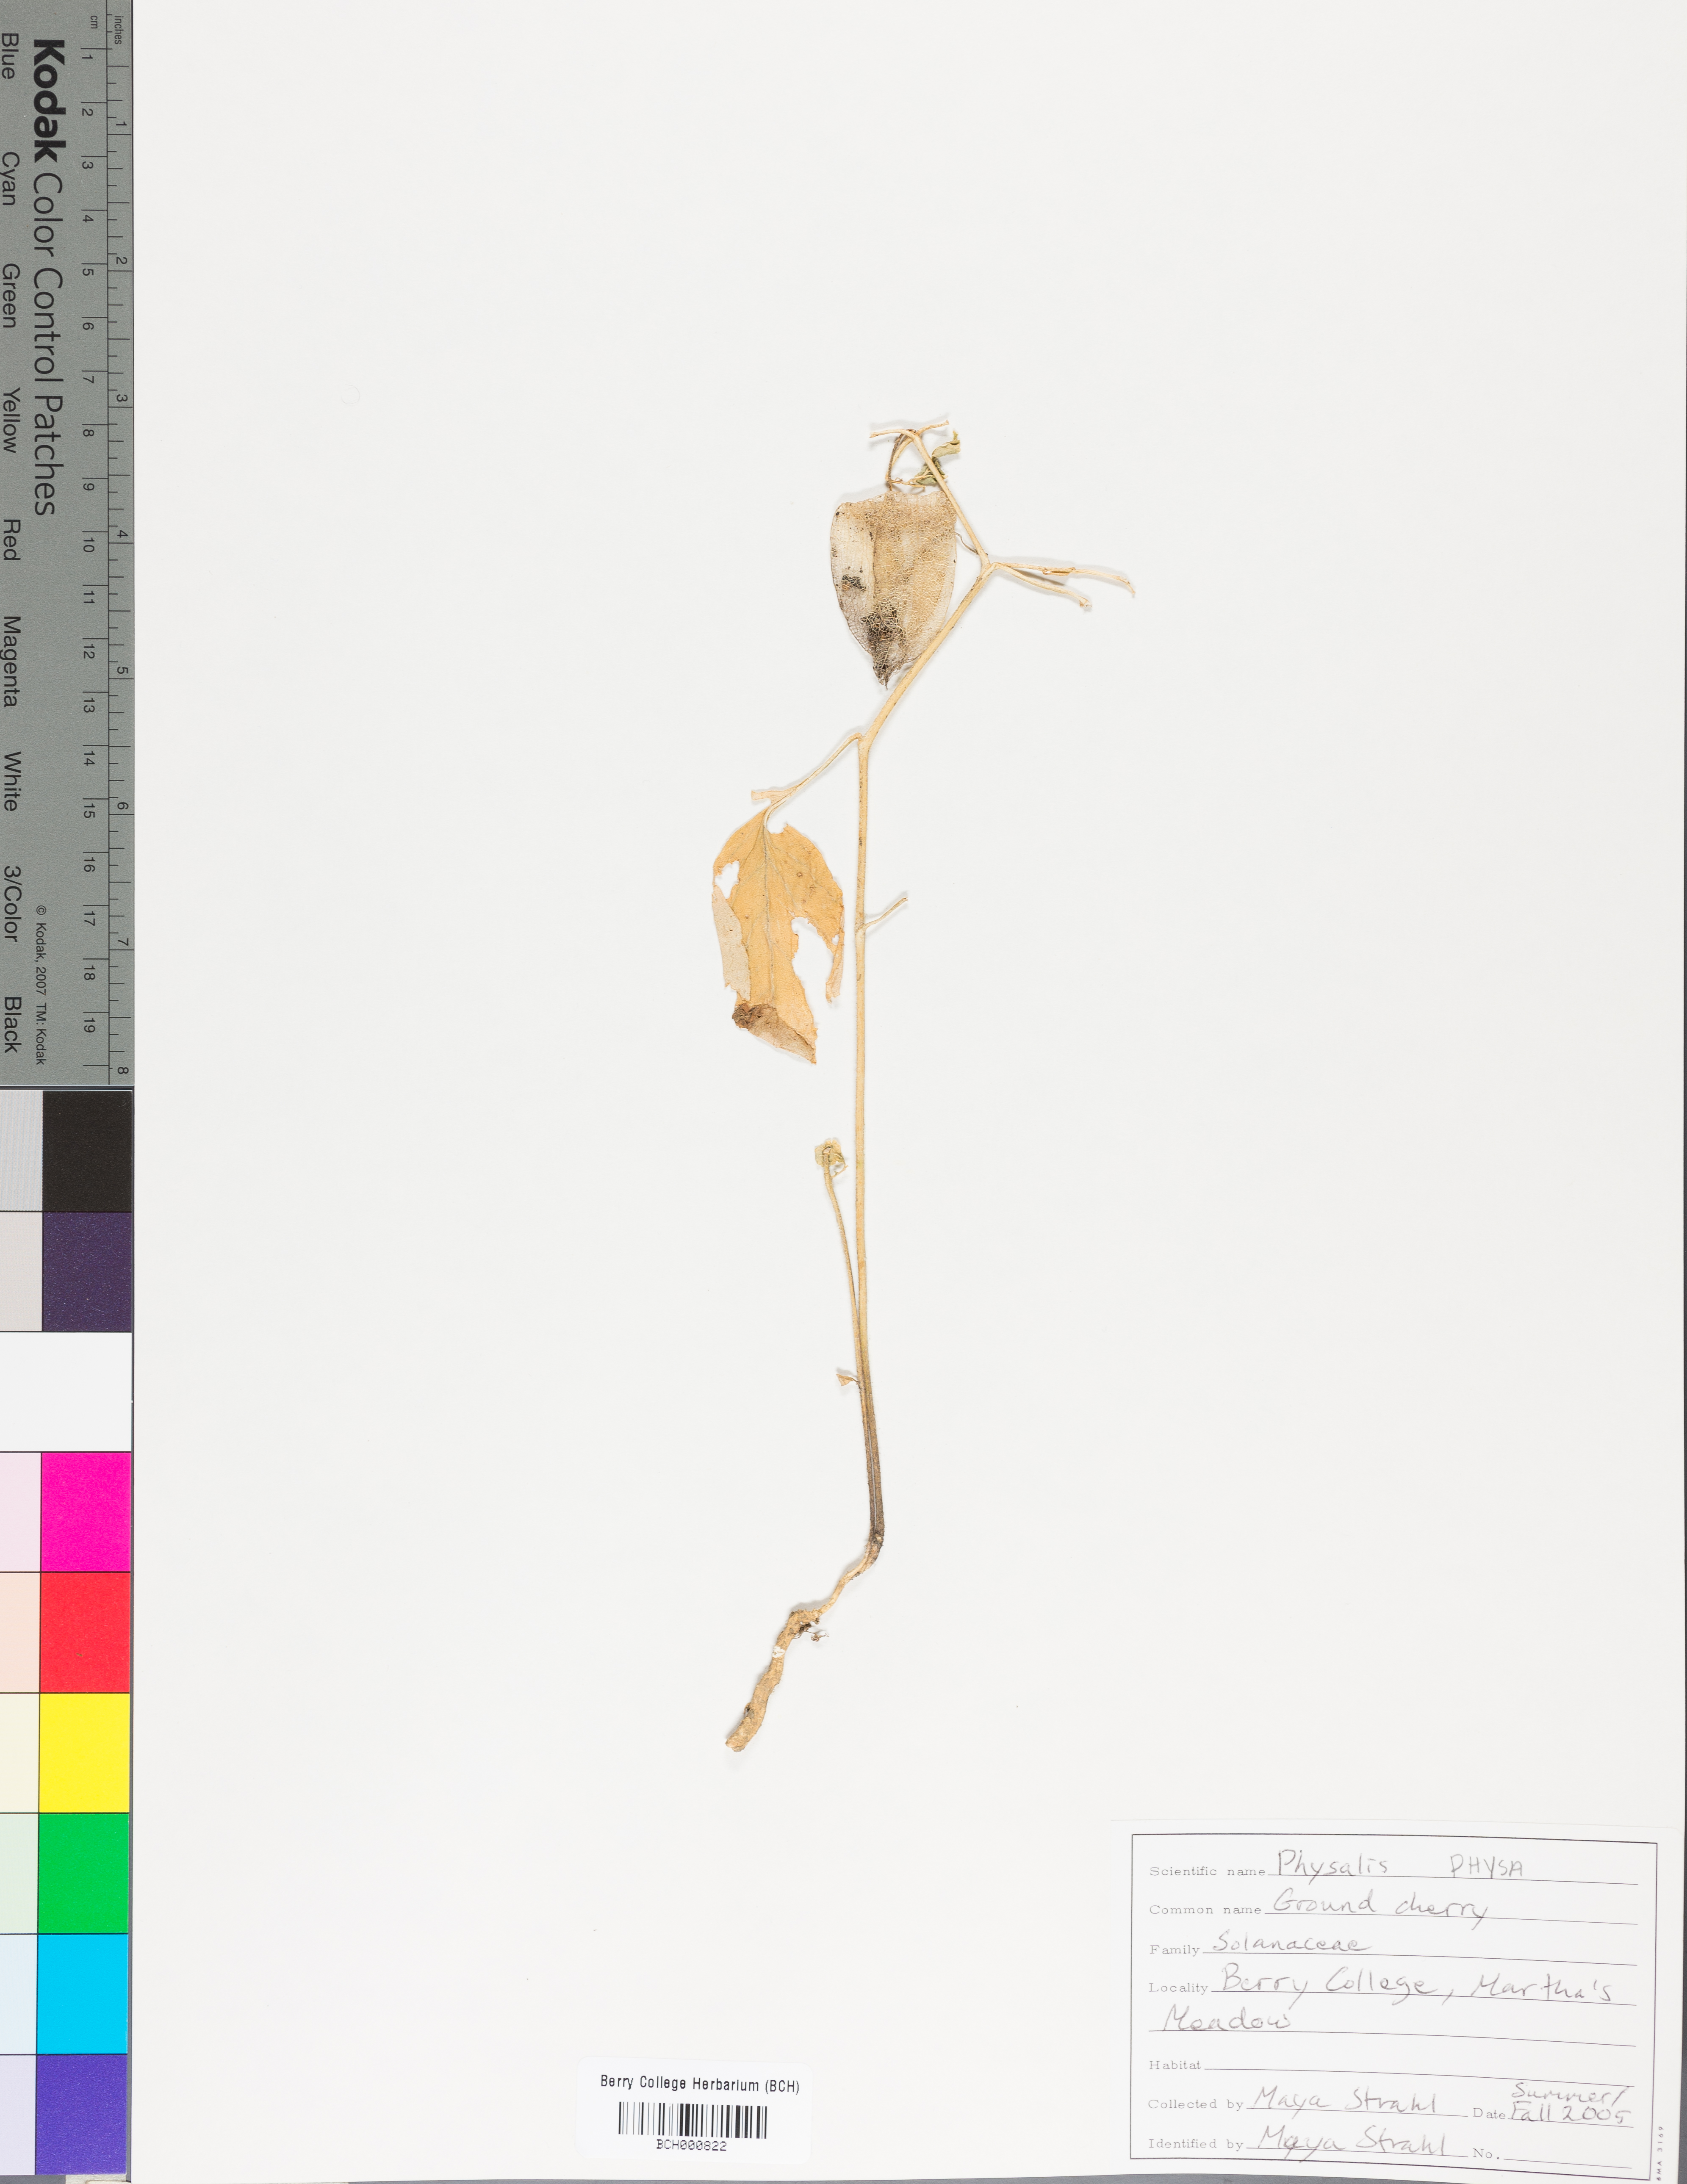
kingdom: Plantae
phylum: Tracheophyta
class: Magnoliopsida
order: Solanales
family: Solanaceae
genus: Physalis
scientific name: Physalis
